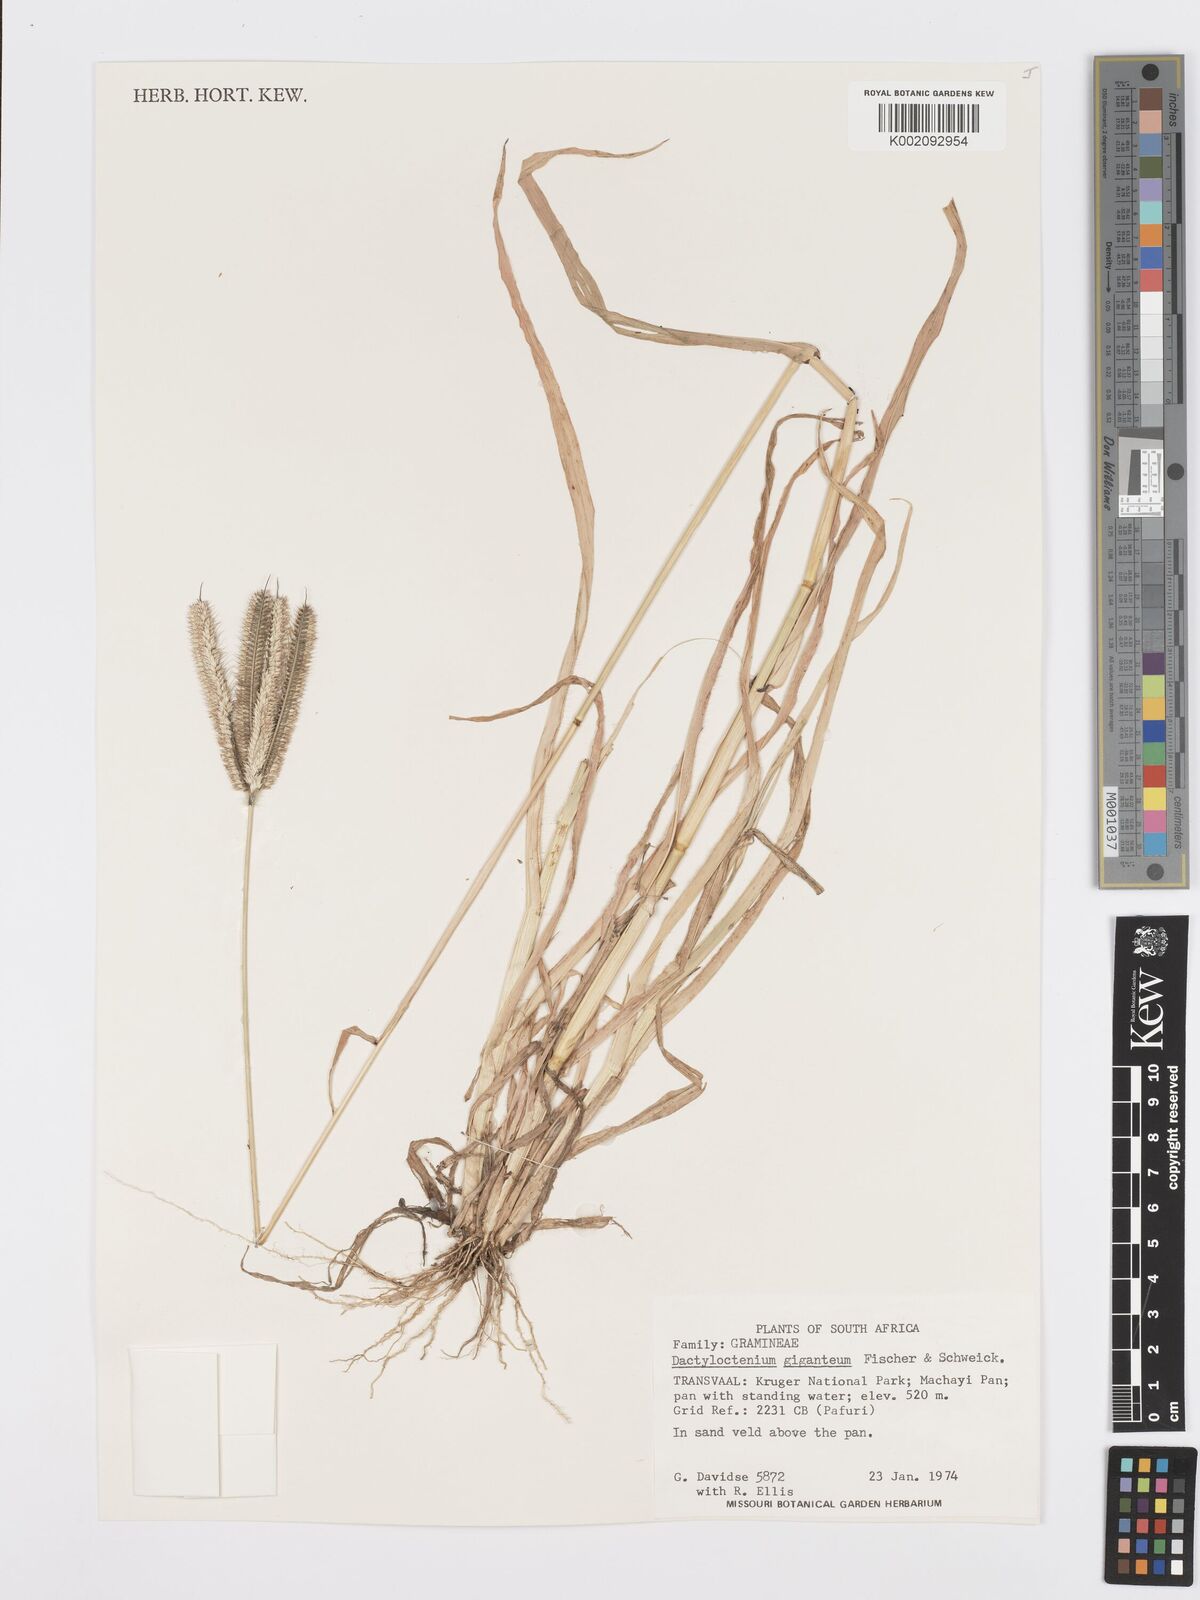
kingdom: Plantae
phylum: Tracheophyta
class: Liliopsida
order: Poales
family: Poaceae
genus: Dactyloctenium
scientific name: Dactyloctenium giganteum
